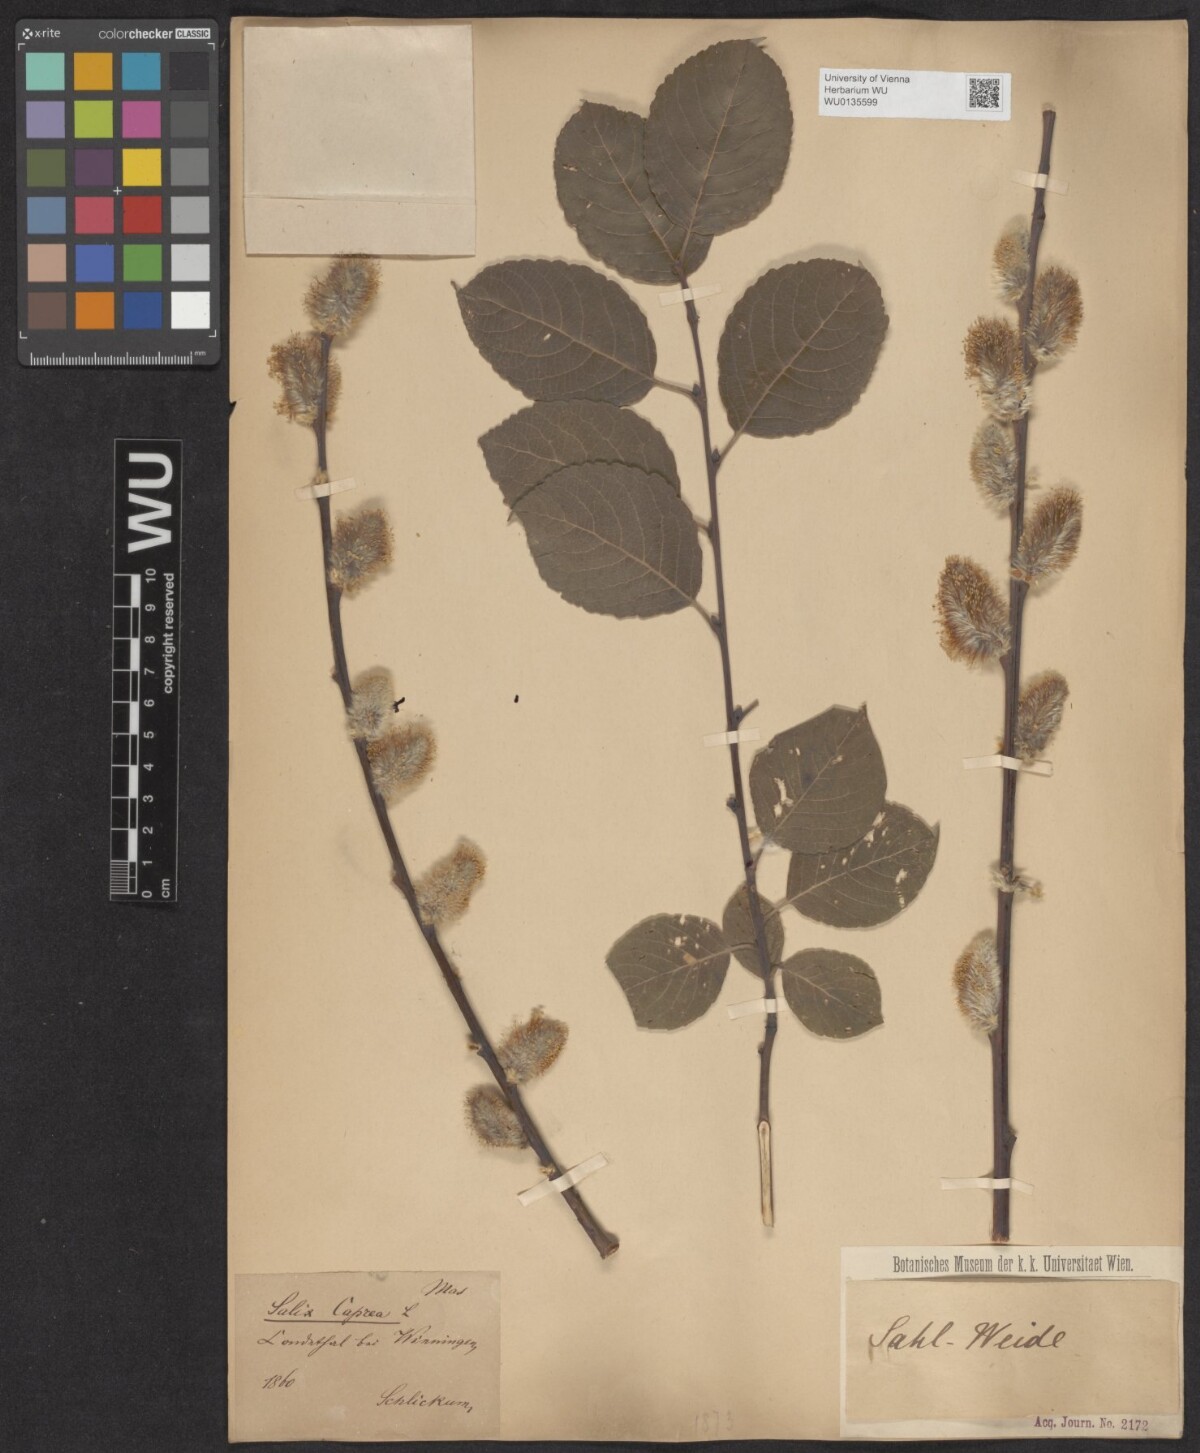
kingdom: Plantae
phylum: Tracheophyta
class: Magnoliopsida
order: Malpighiales
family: Salicaceae
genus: Salix
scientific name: Salix caprea
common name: Goat willow
